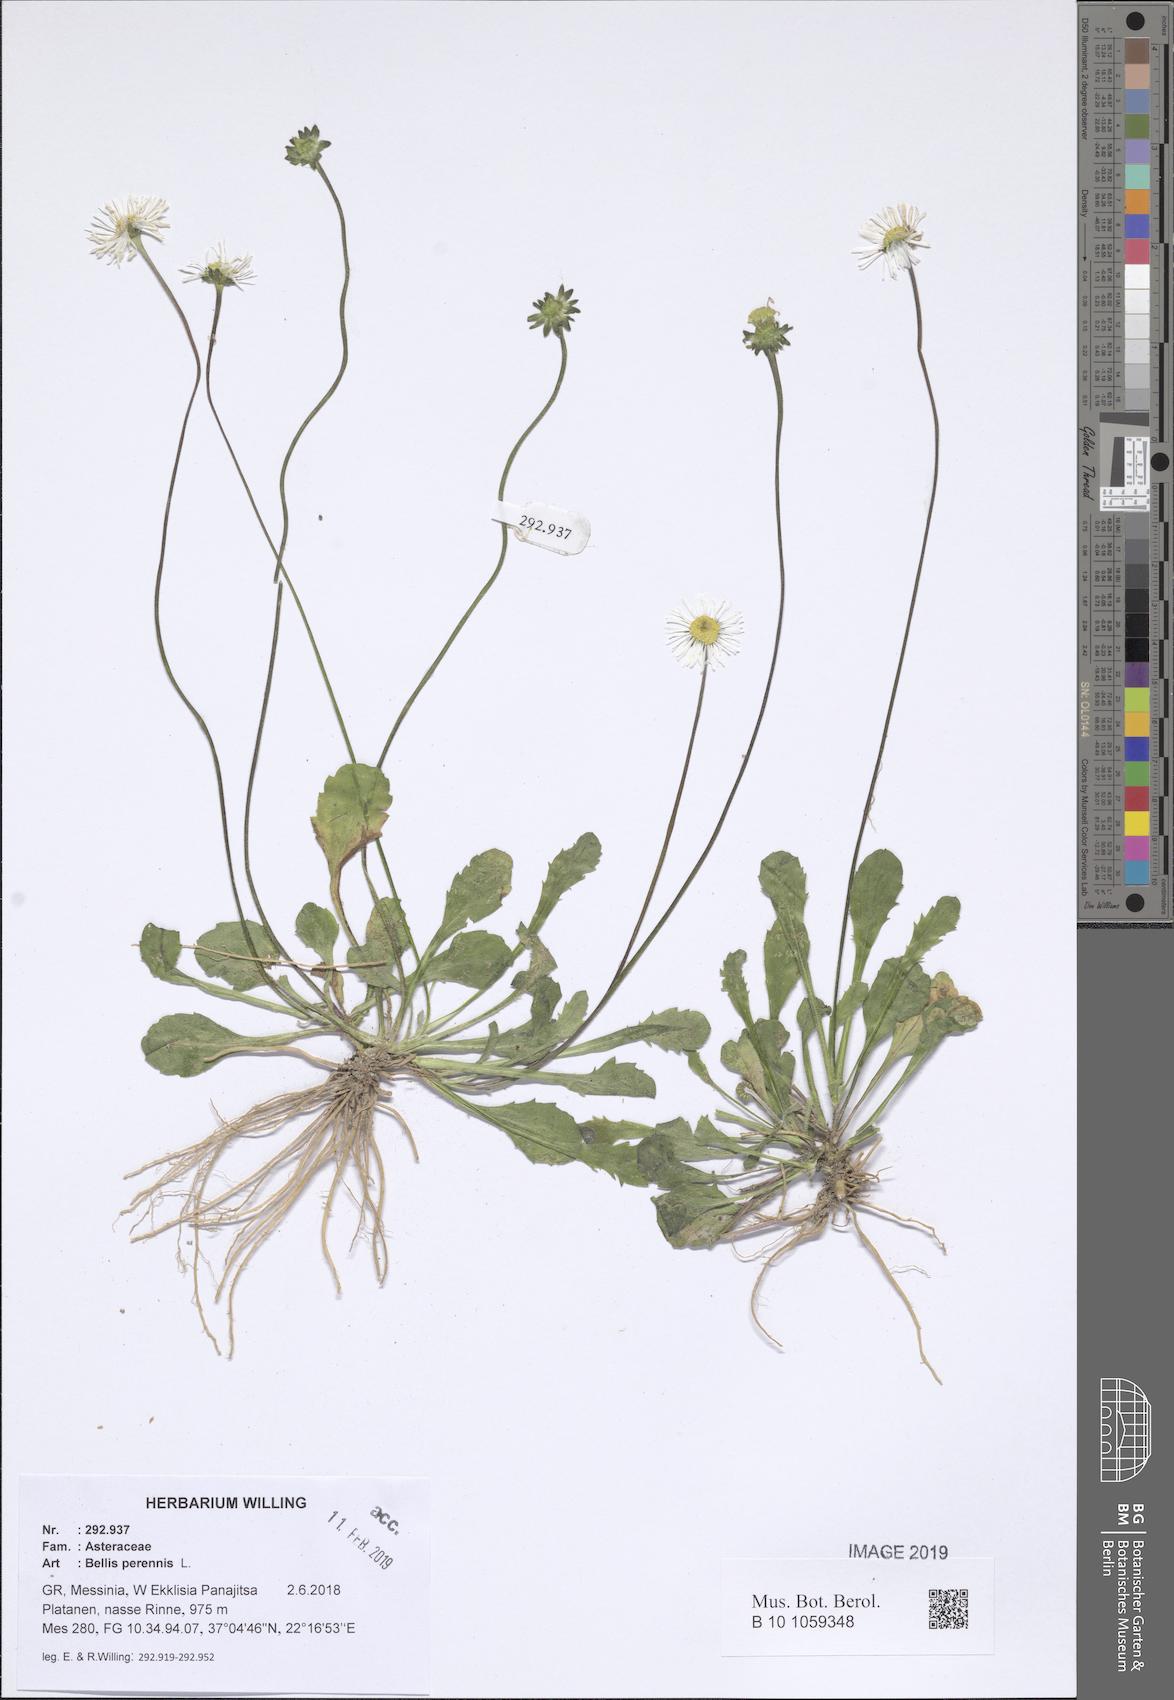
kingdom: Plantae
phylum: Tracheophyta
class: Magnoliopsida
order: Asterales
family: Asteraceae
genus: Bellis
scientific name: Bellis perennis
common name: Lawndaisy
